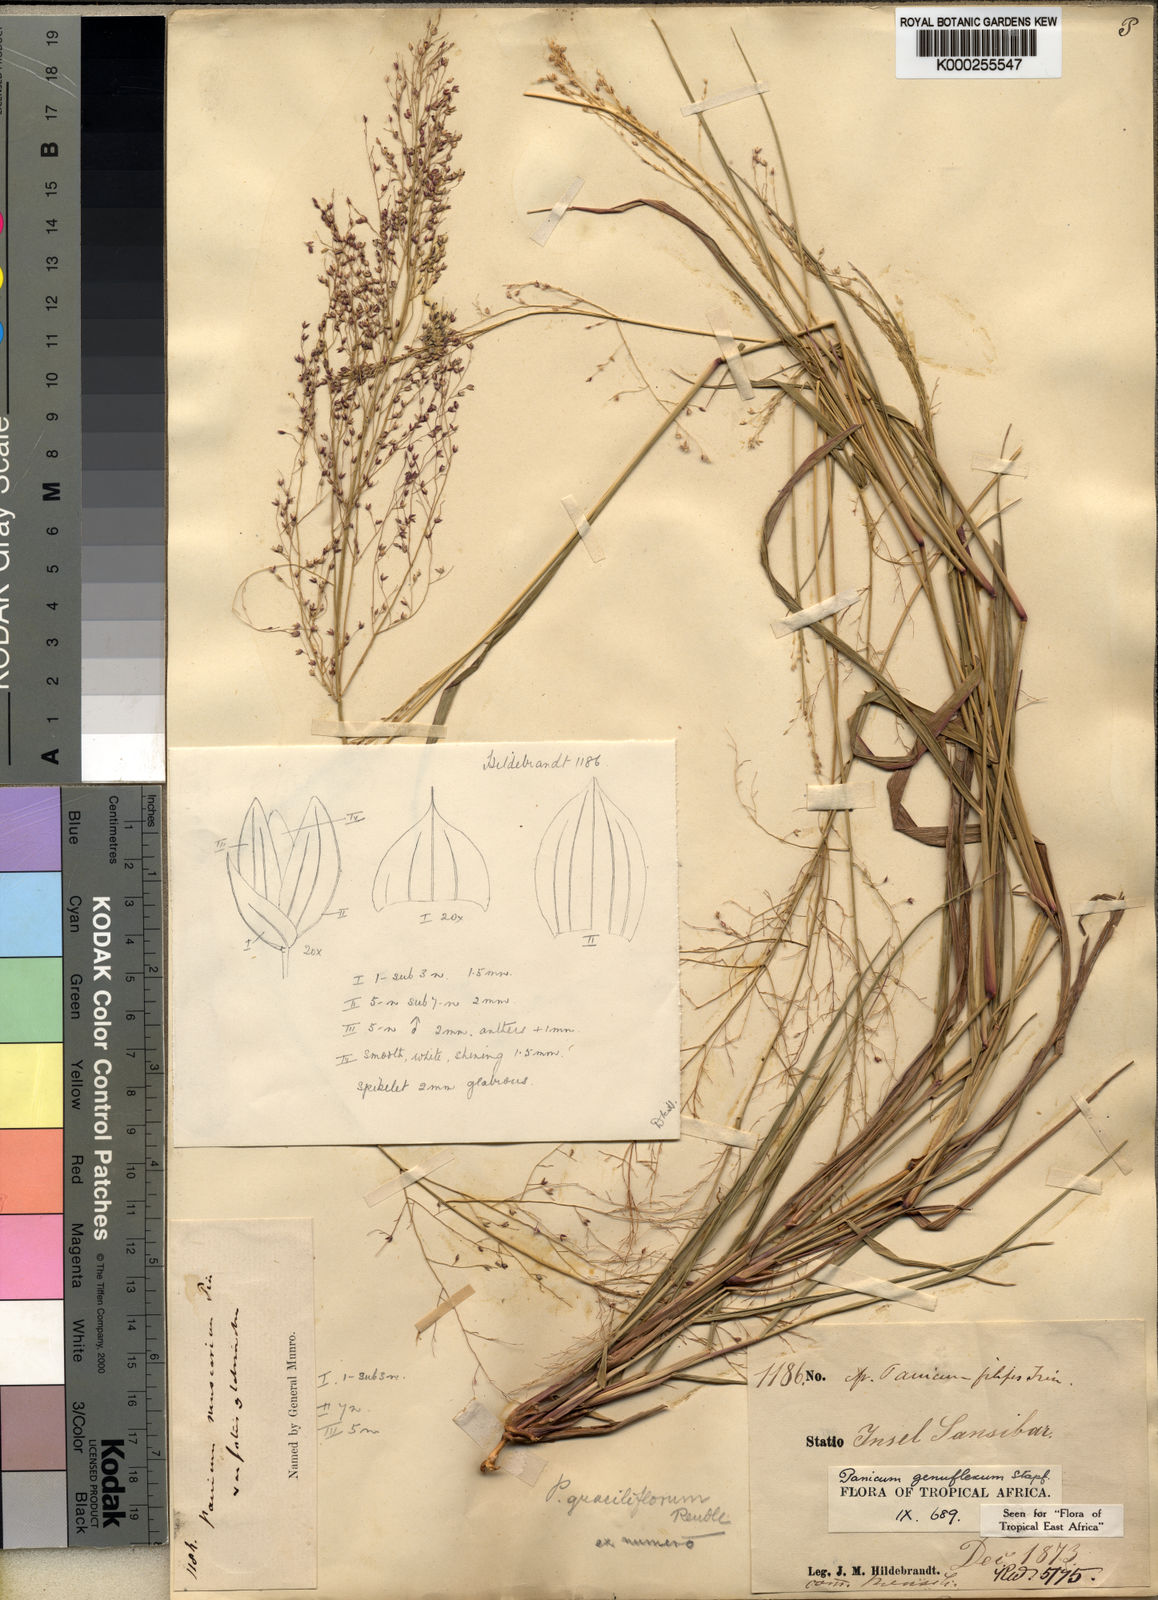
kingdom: Plantae
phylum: Tracheophyta
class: Liliopsida
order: Poales
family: Poaceae
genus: Panicum
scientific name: Panicum genuflexum
